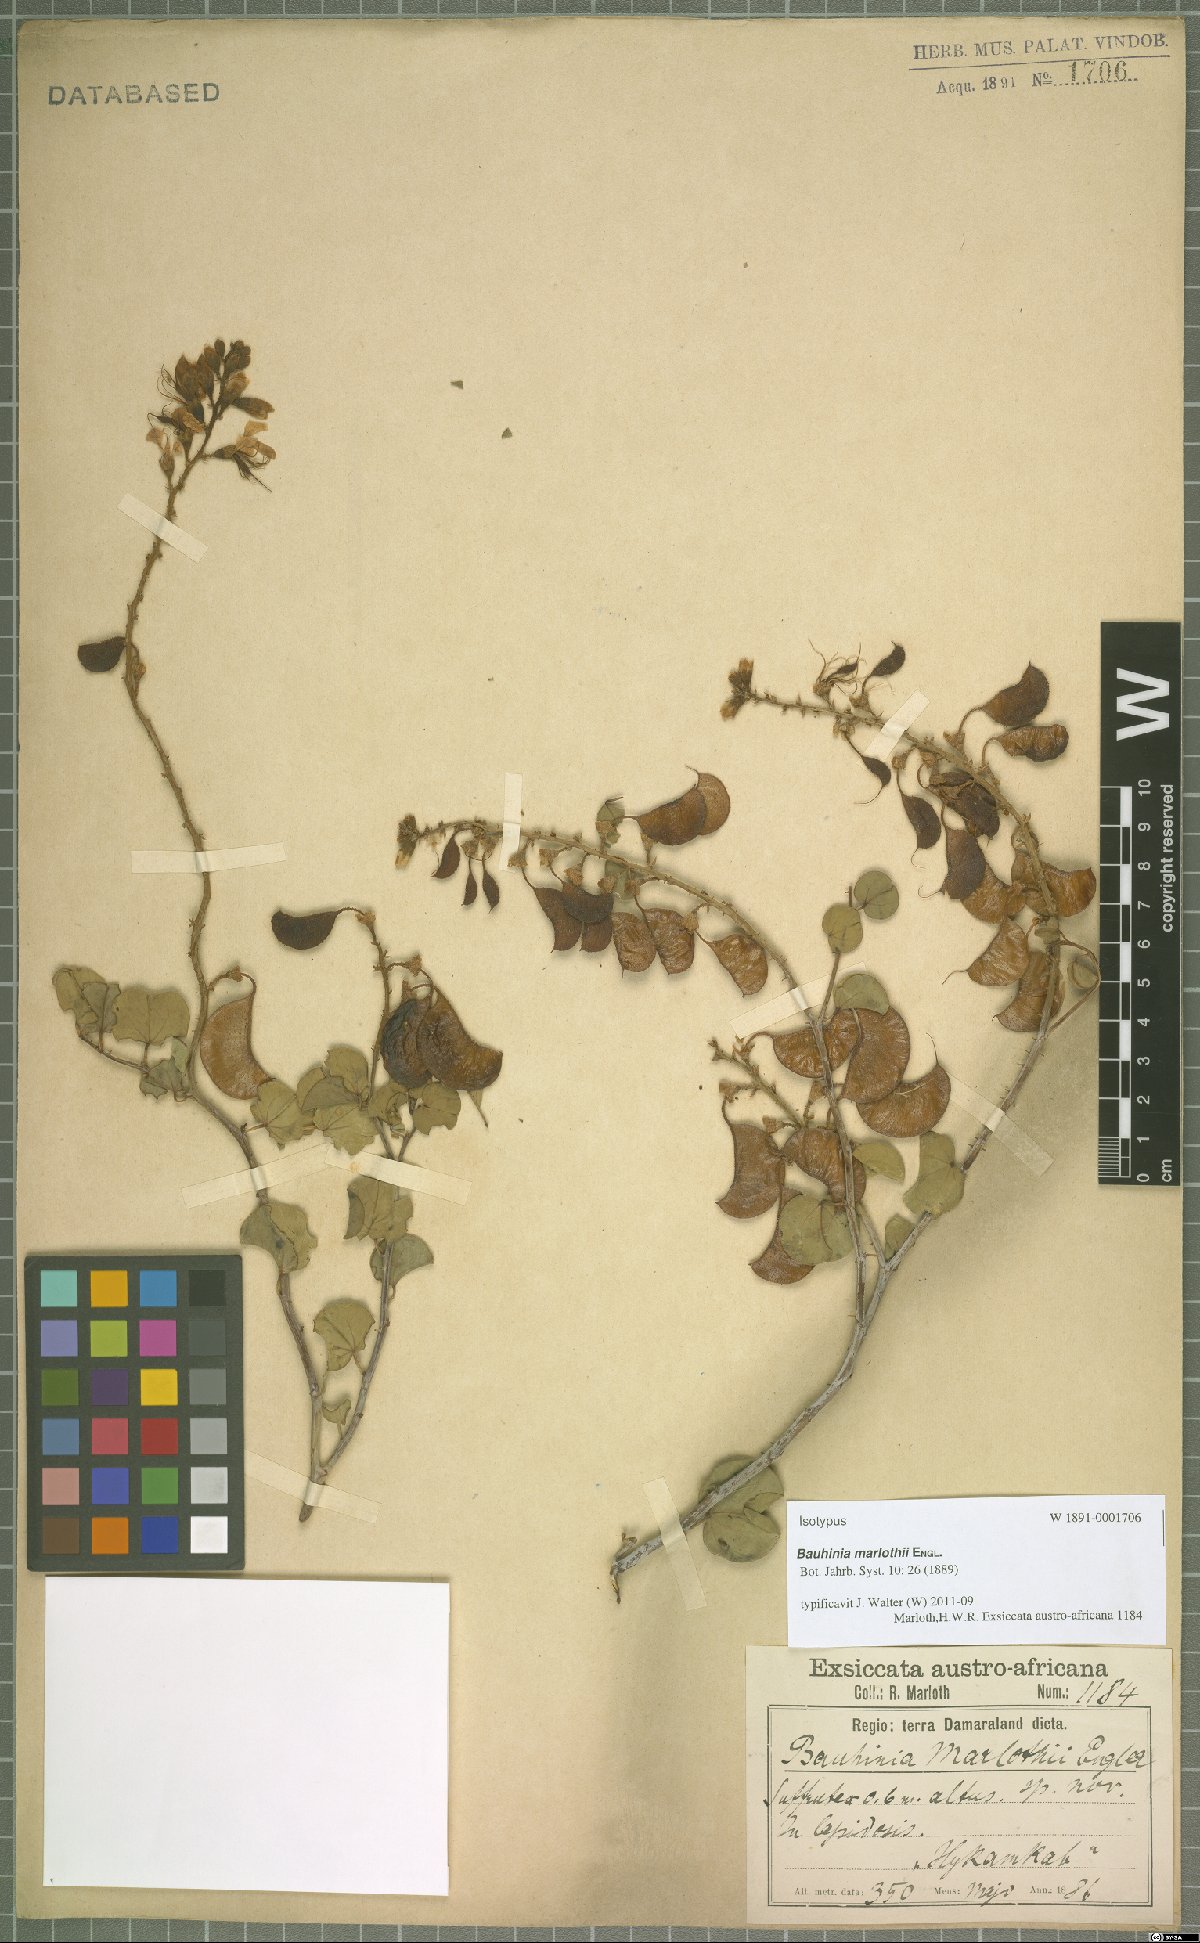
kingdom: Plantae
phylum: Tracheophyta
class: Magnoliopsida
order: Fabales
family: Fabaceae
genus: Adenolobus
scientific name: Adenolobus pechuelii
